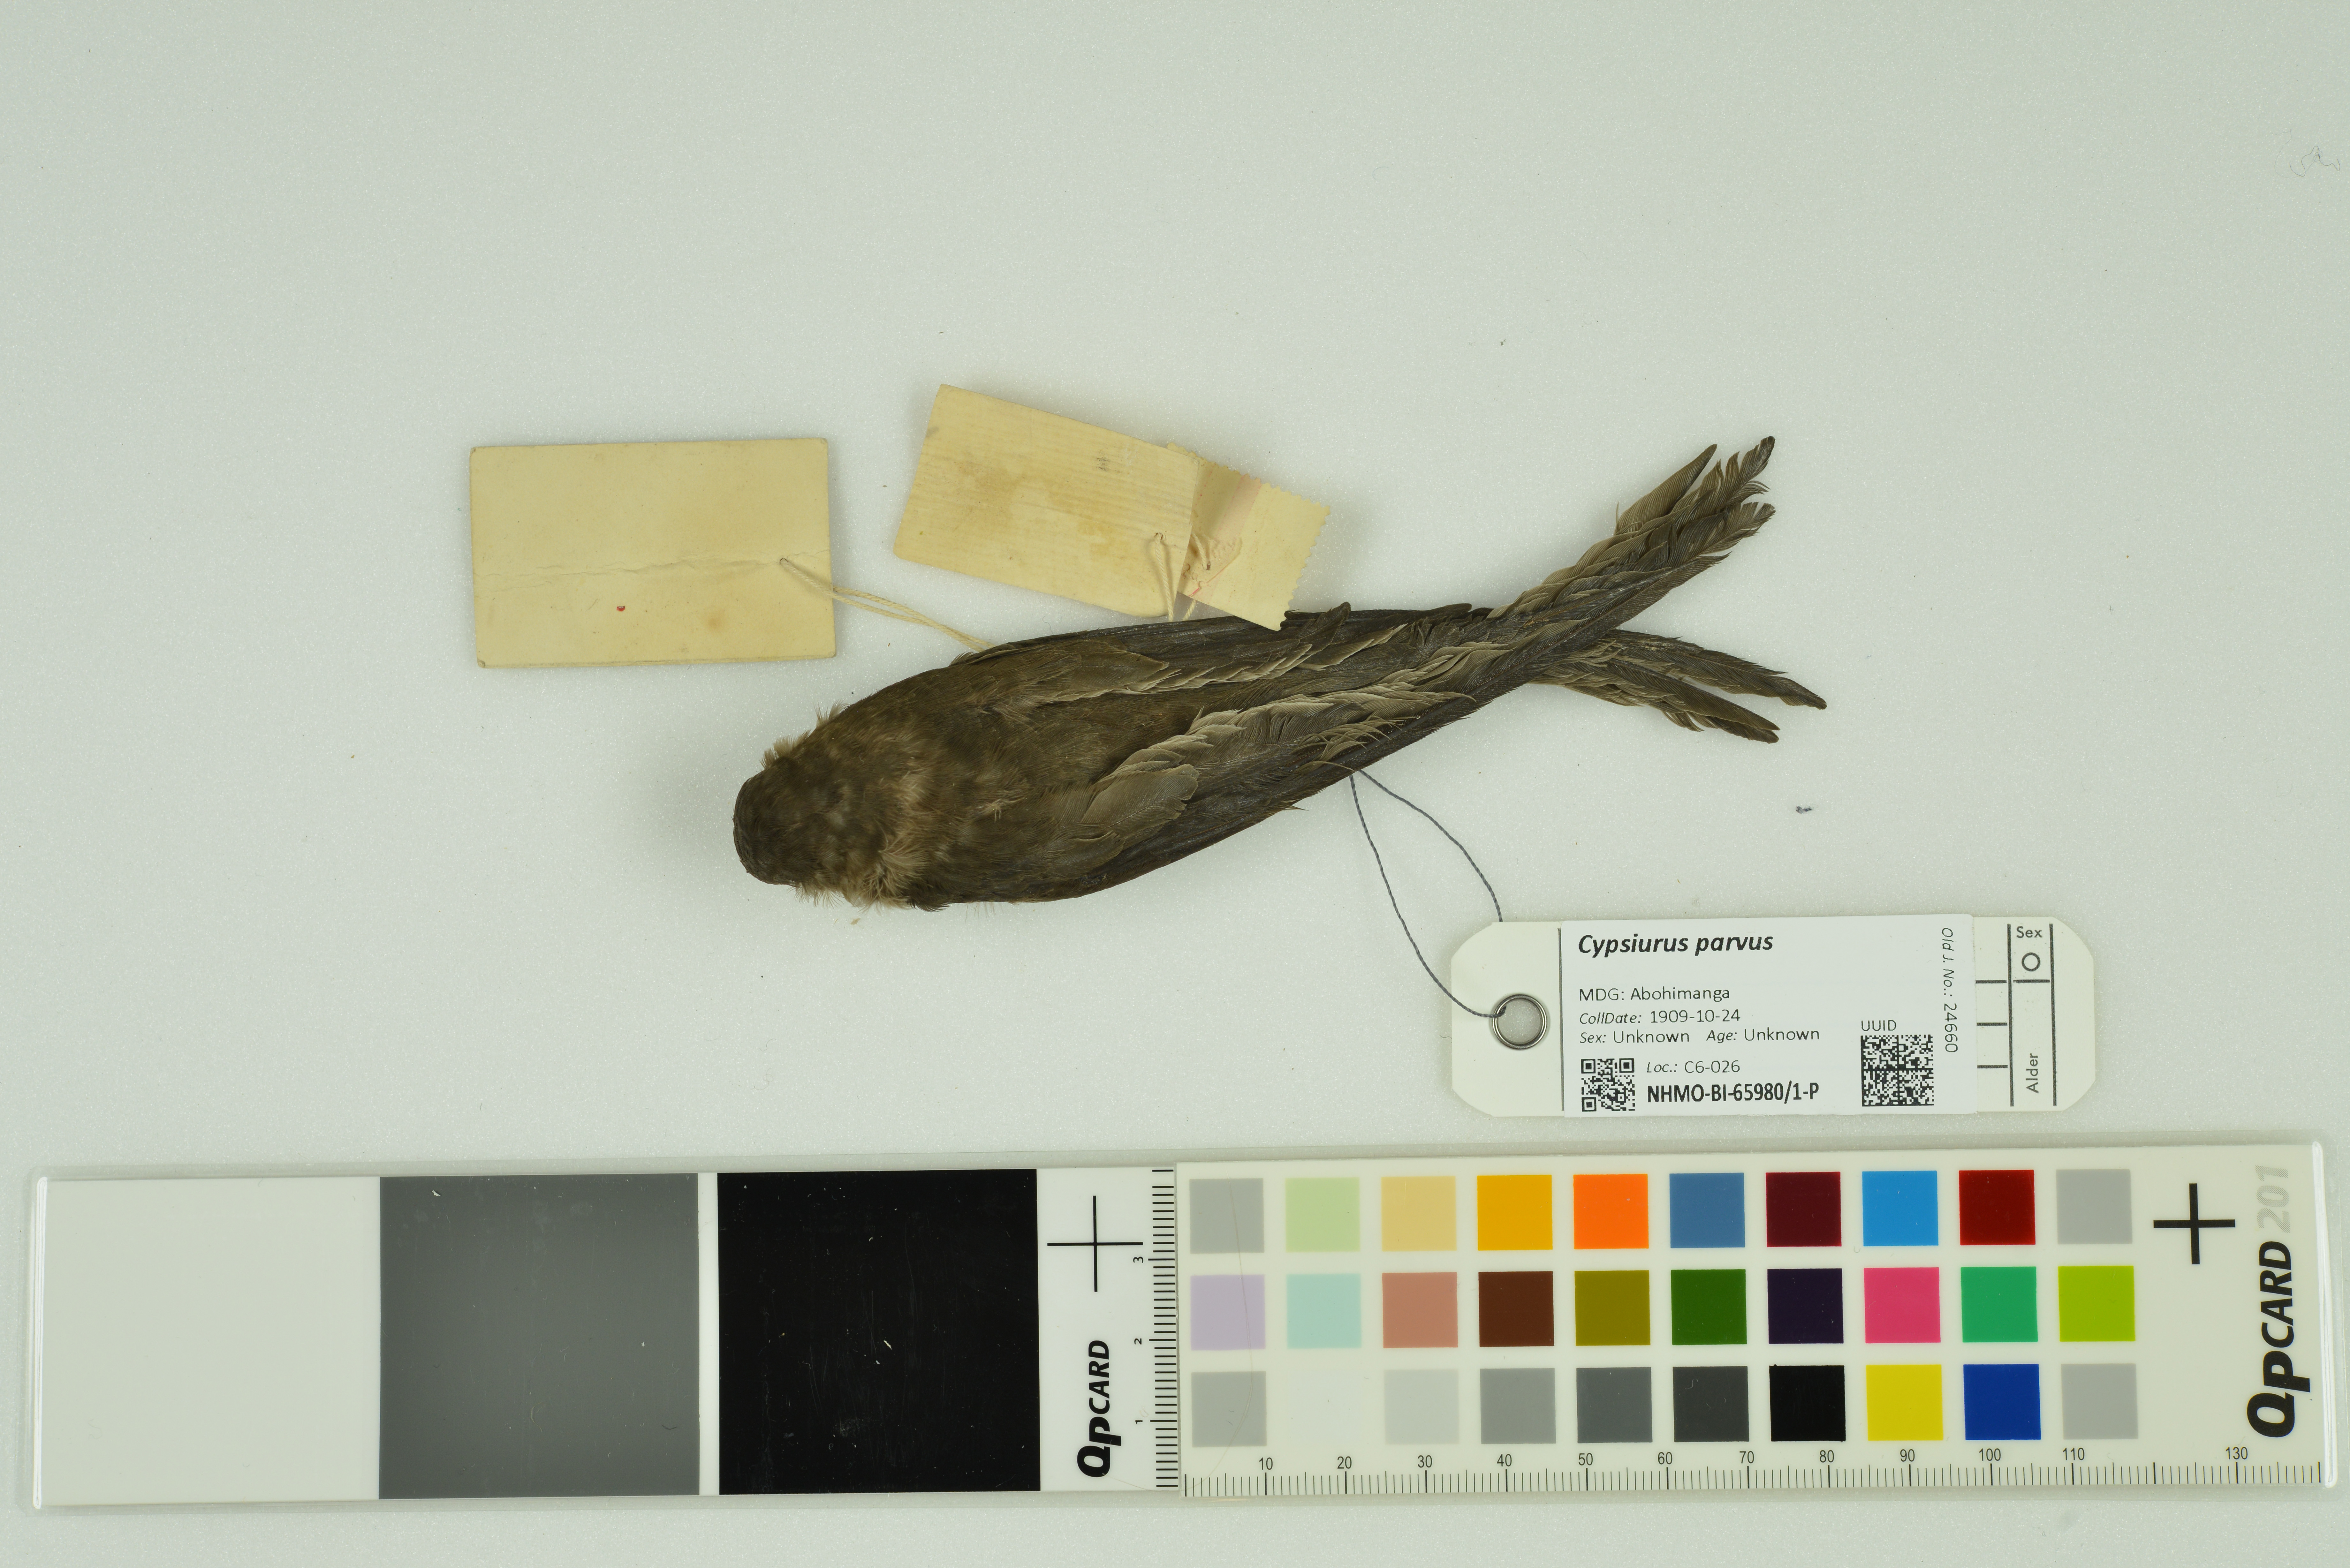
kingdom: Animalia
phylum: Chordata
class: Aves
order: Apodiformes
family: Apodidae
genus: Cypsiurus
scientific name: Cypsiurus parvus
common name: African palm swift
